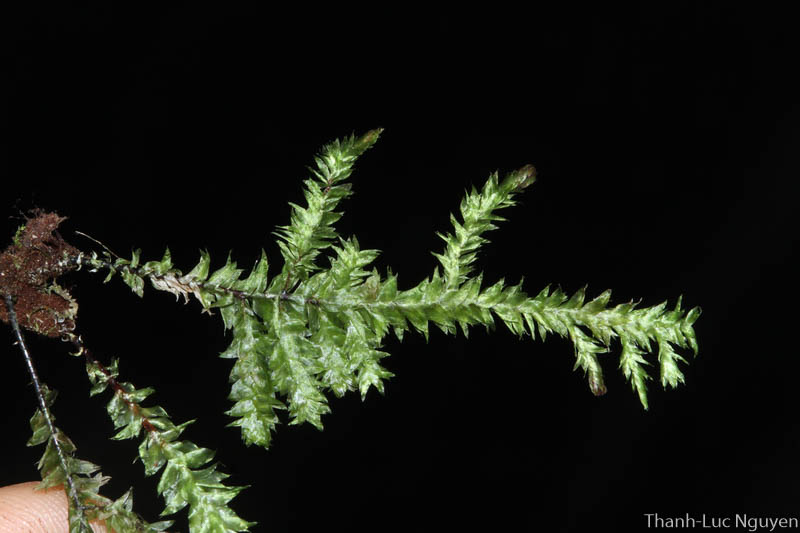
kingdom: Plantae
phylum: Bryophyta
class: Bryopsida
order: Hypnales
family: Neckeraceae
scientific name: Neckeraceae
